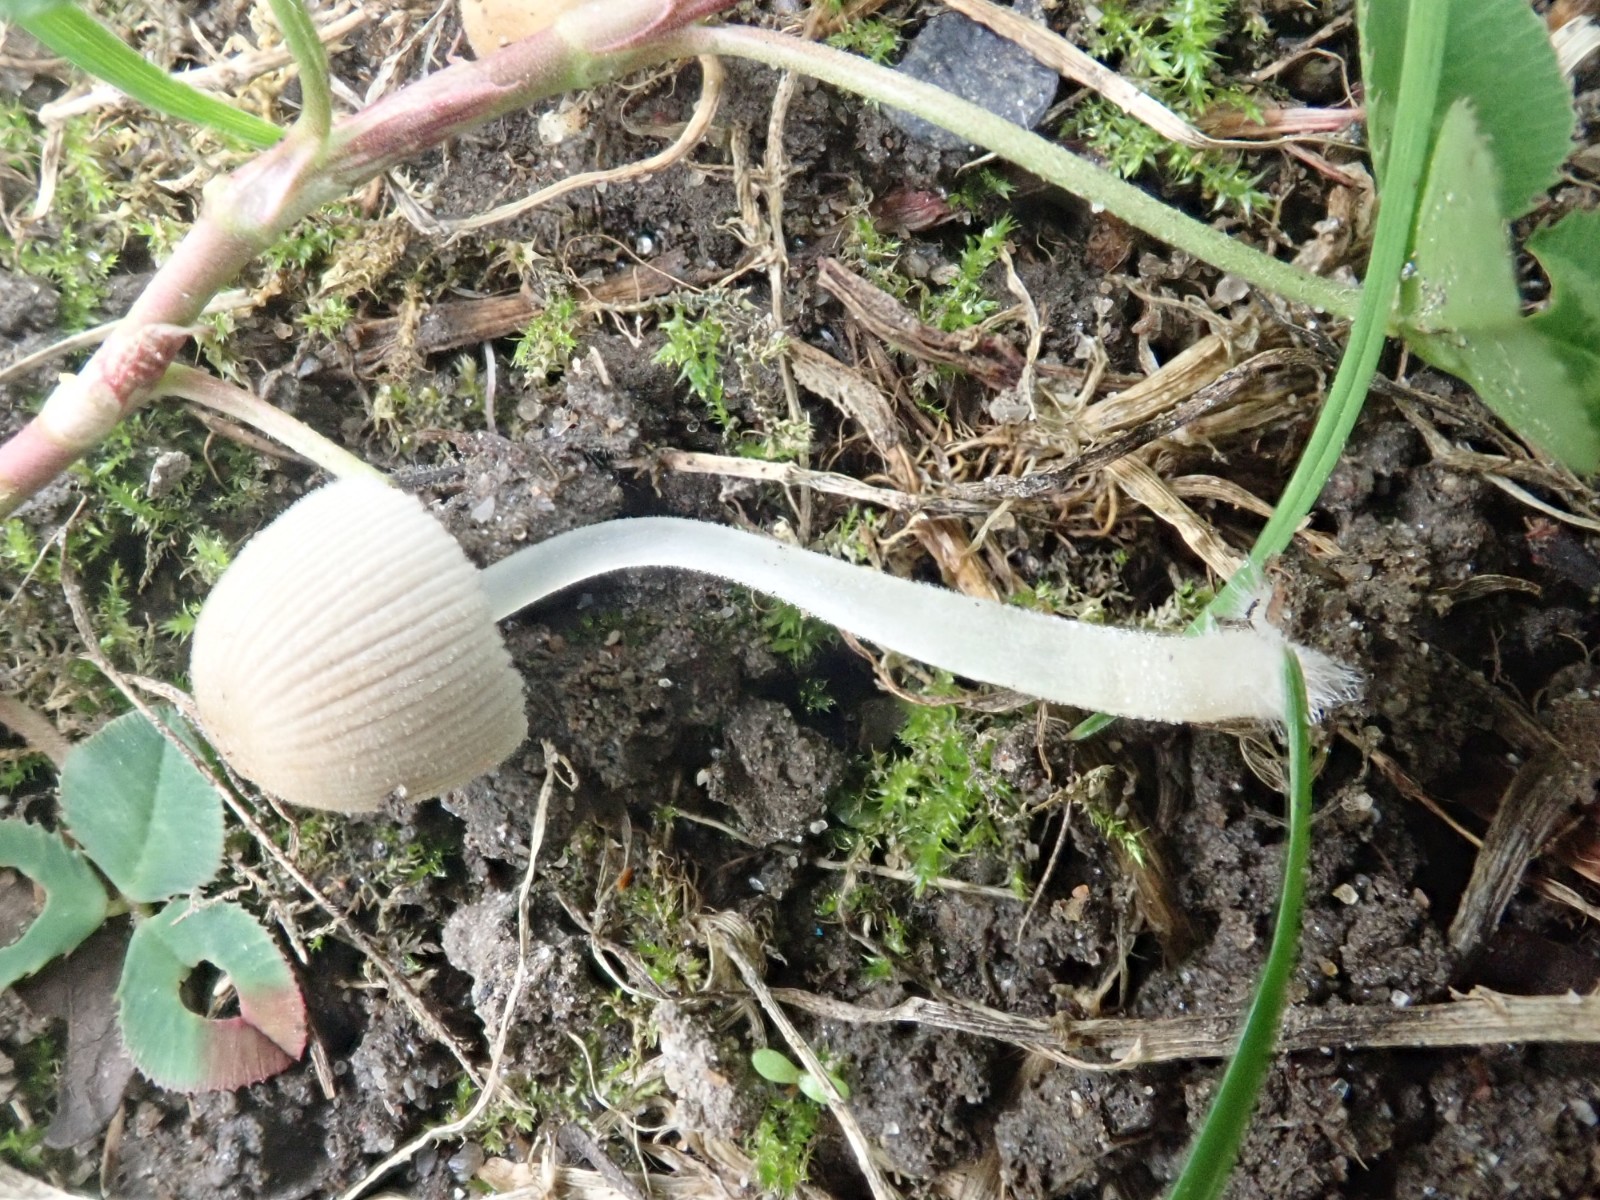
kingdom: Fungi
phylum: Basidiomycota
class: Agaricomycetes
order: Agaricales
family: Psathyrellaceae
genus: Coprinellus
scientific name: Coprinellus disseminatus
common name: bredsået blækhat
